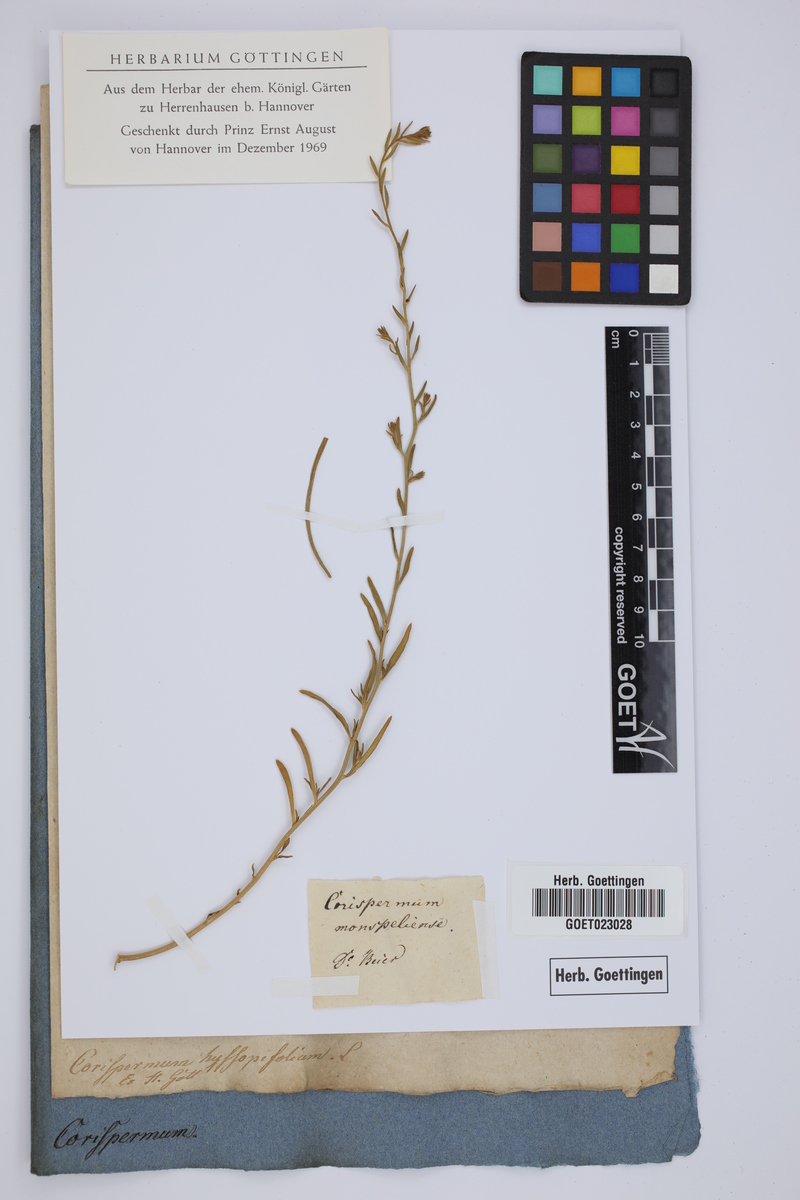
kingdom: Plantae
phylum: Tracheophyta
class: Magnoliopsida
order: Caryophyllales
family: Amaranthaceae
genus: Corispermum
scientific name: Corispermum hyssopifolium
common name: Bugseed
